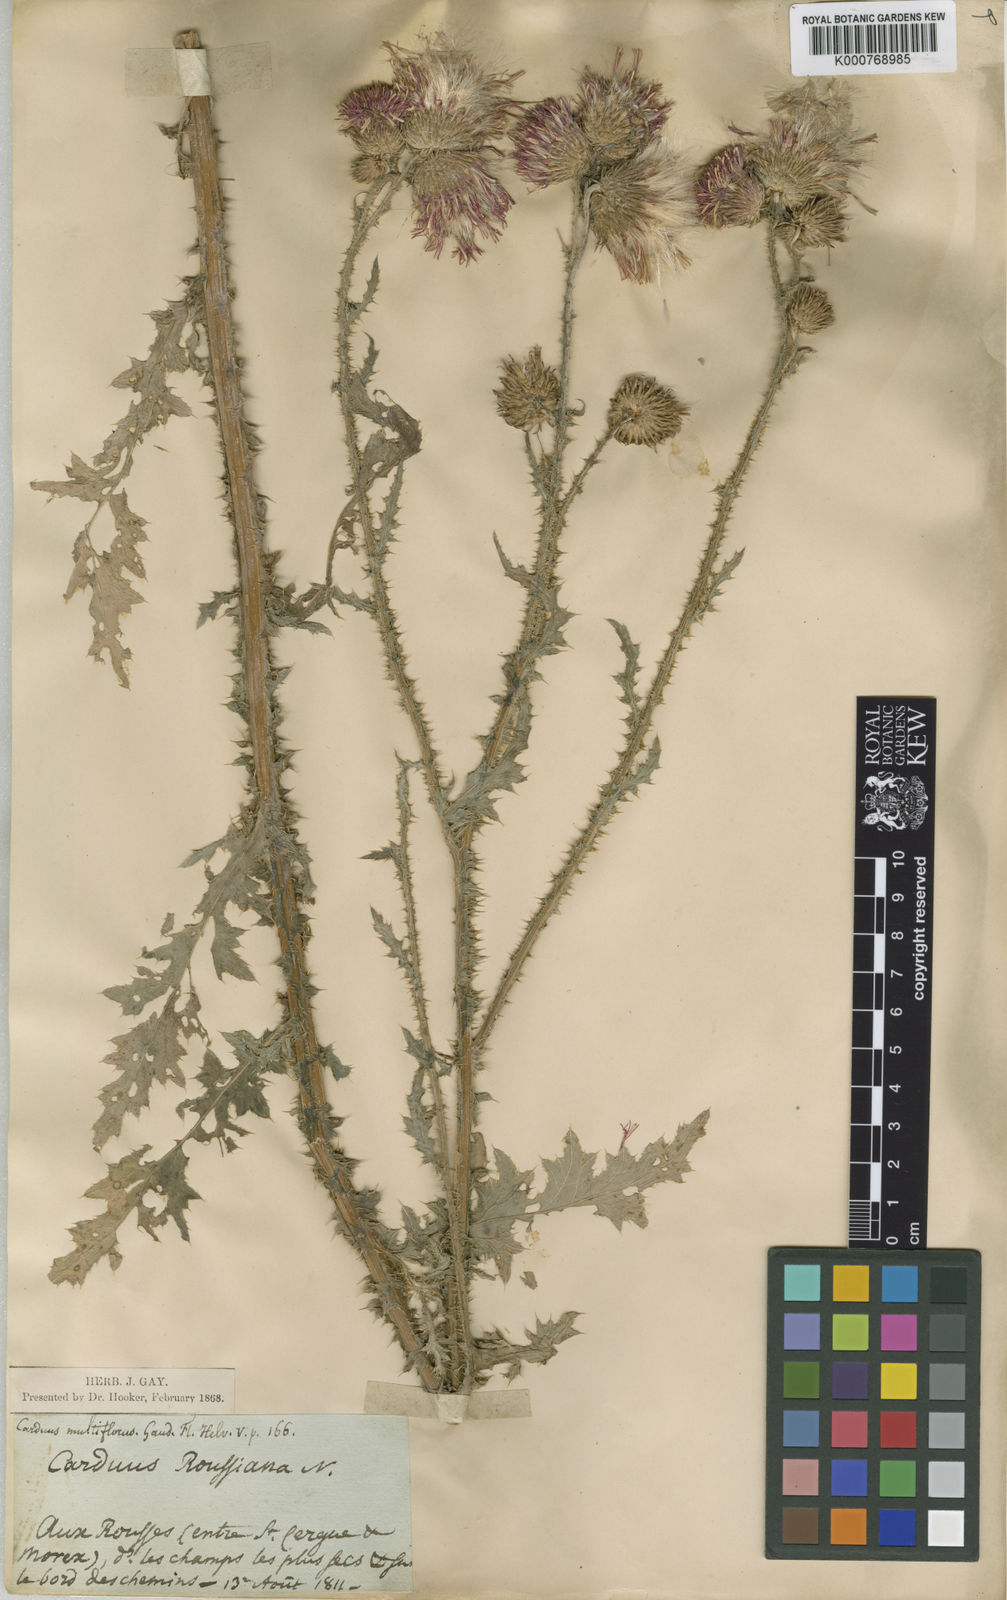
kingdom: Plantae
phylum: Tracheophyta
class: Magnoliopsida
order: Asterales
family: Asteraceae
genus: Carduus
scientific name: Carduus crispus
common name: Welted thistle
